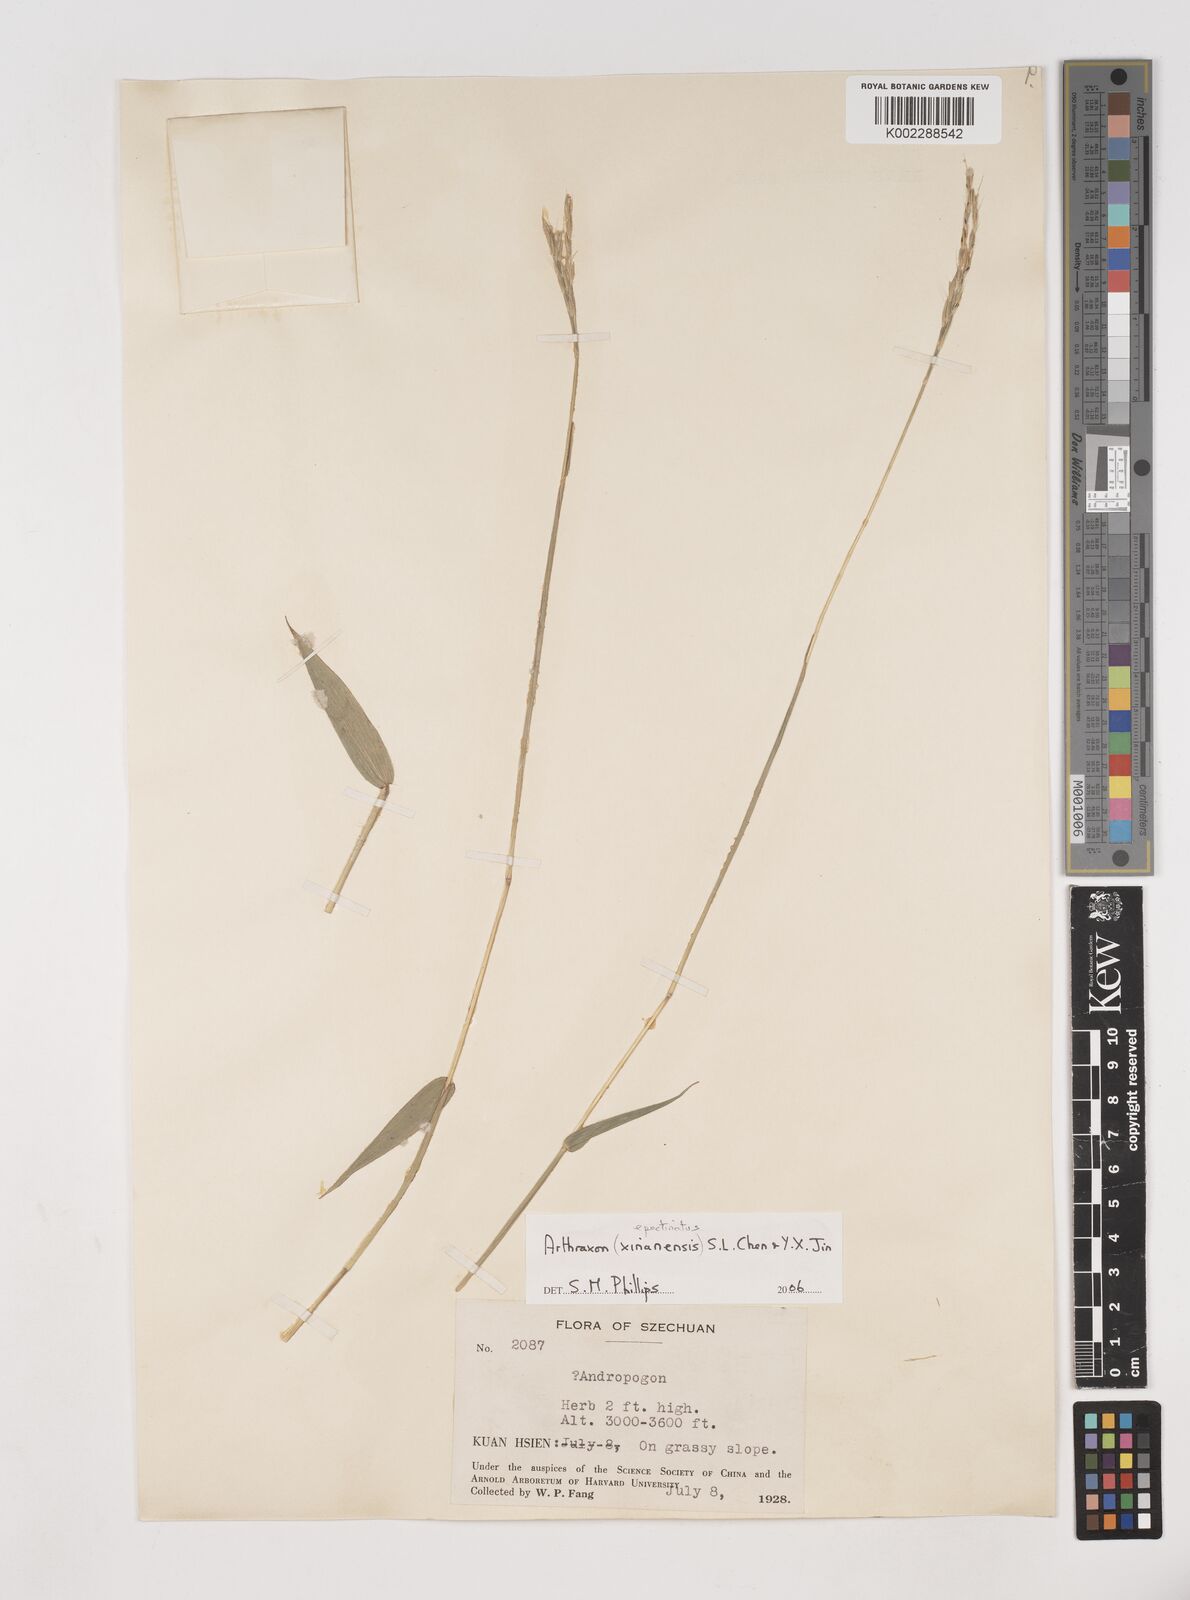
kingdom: Plantae
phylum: Tracheophyta
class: Liliopsida
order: Poales
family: Poaceae
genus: Arthraxon
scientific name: Arthraxon epectinatus
